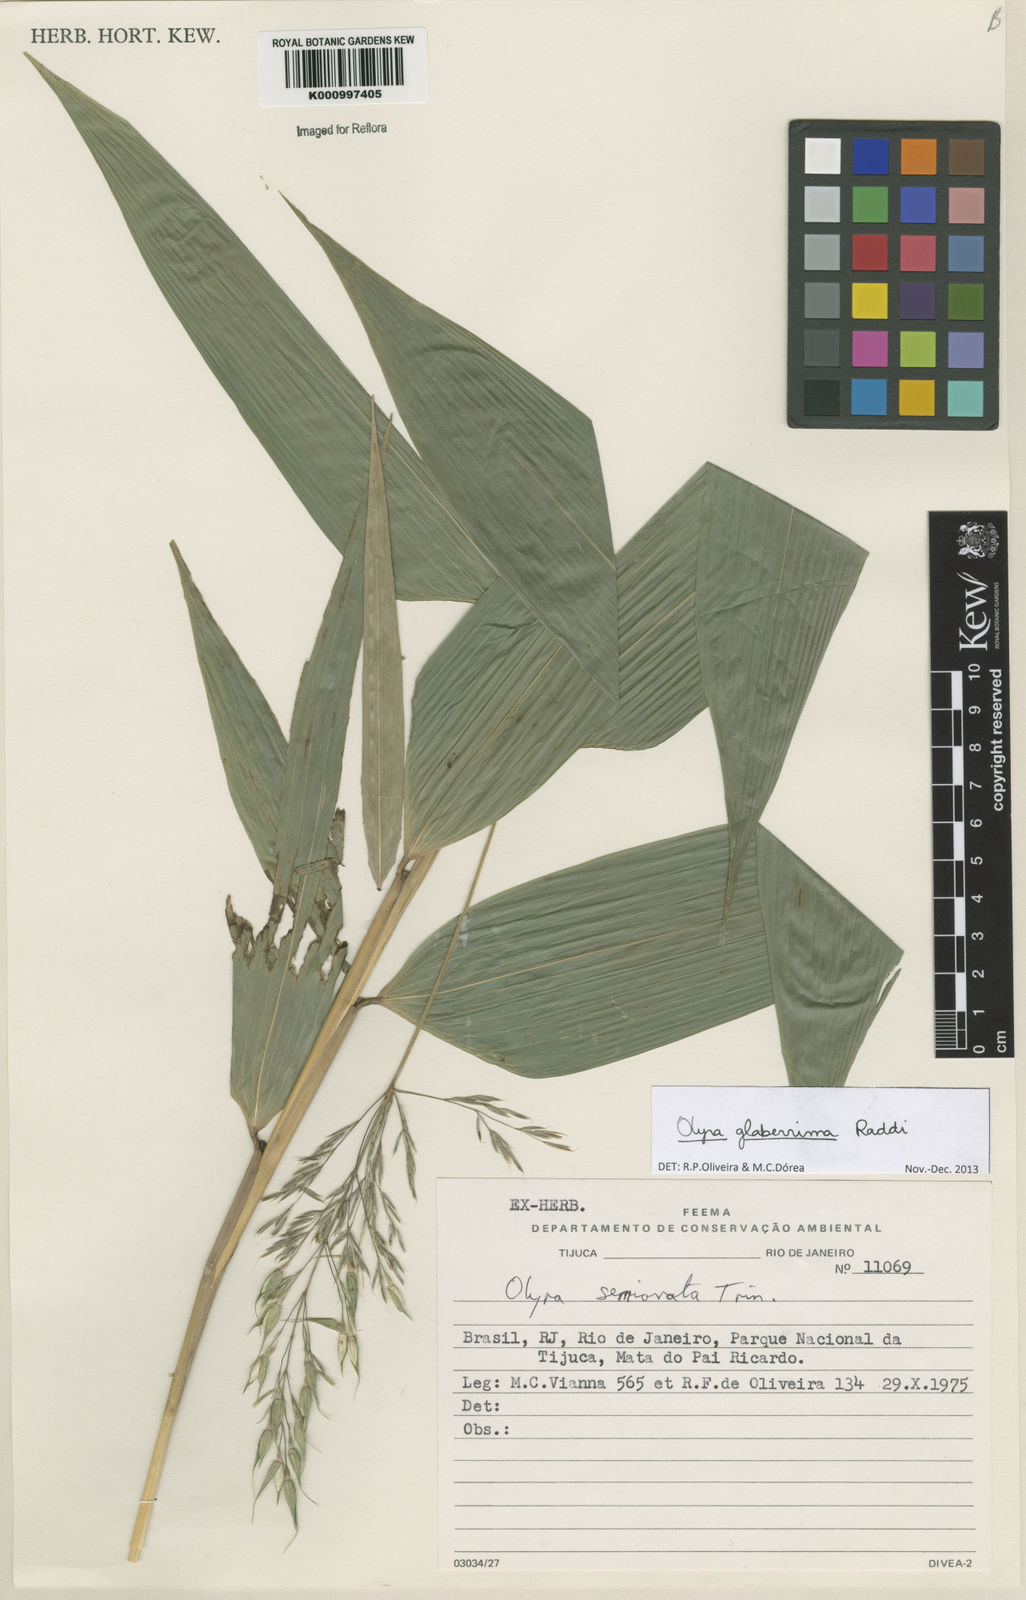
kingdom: Plantae
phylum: Tracheophyta
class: Liliopsida
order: Poales
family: Poaceae
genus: Olyra
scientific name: Olyra glaberrima
